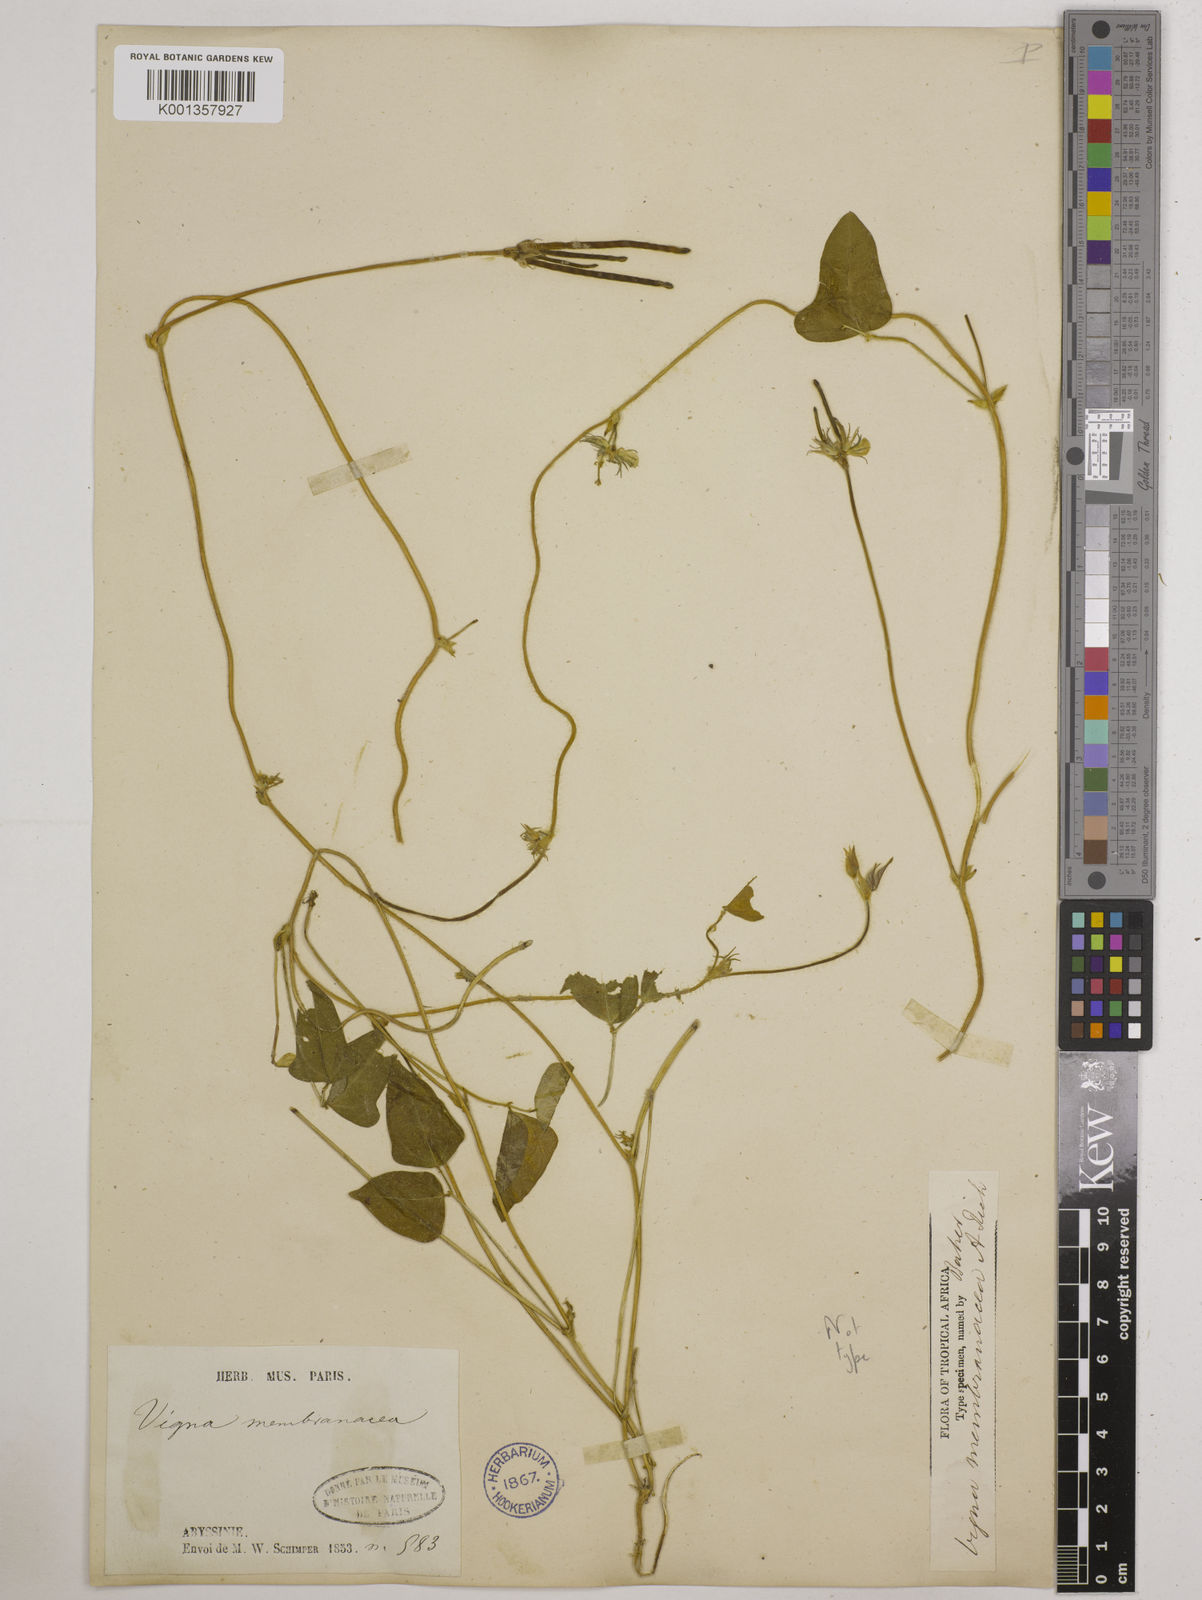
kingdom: Plantae
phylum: Tracheophyta
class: Magnoliopsida
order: Fabales
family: Fabaceae
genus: Vigna
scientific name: Vigna membranacea
